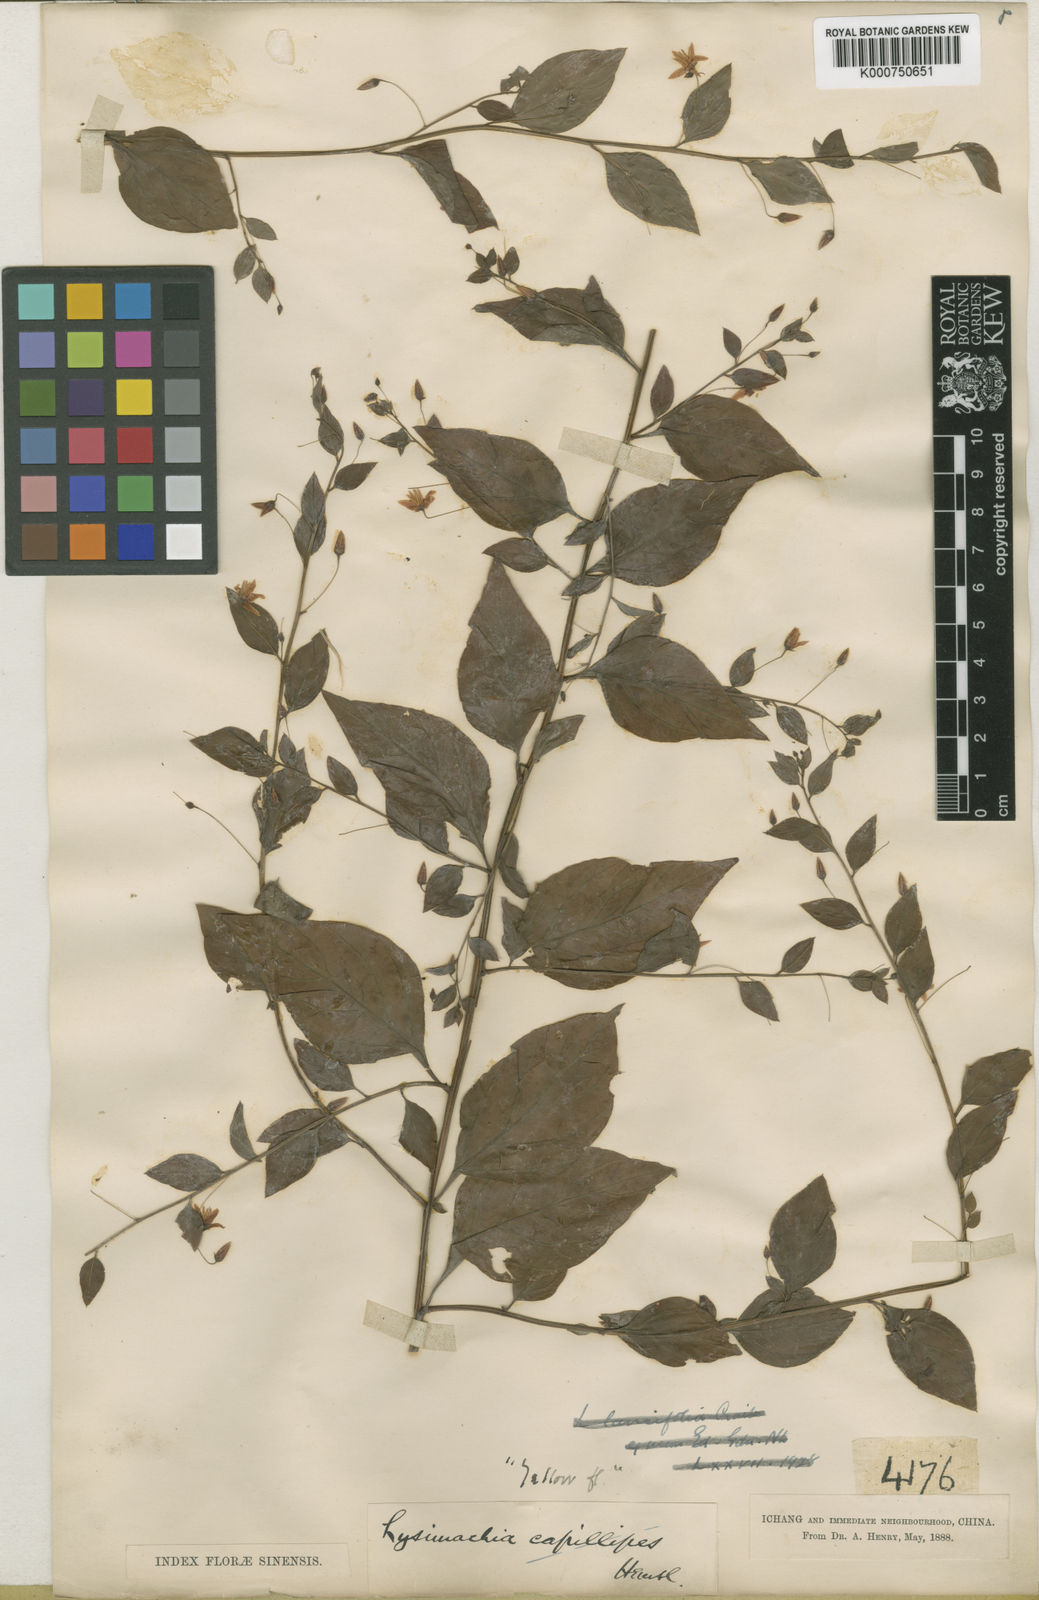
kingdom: Plantae
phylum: Tracheophyta
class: Magnoliopsida
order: Ericales
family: Primulaceae
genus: Lysimachia
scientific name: Lysimachia capillipes
